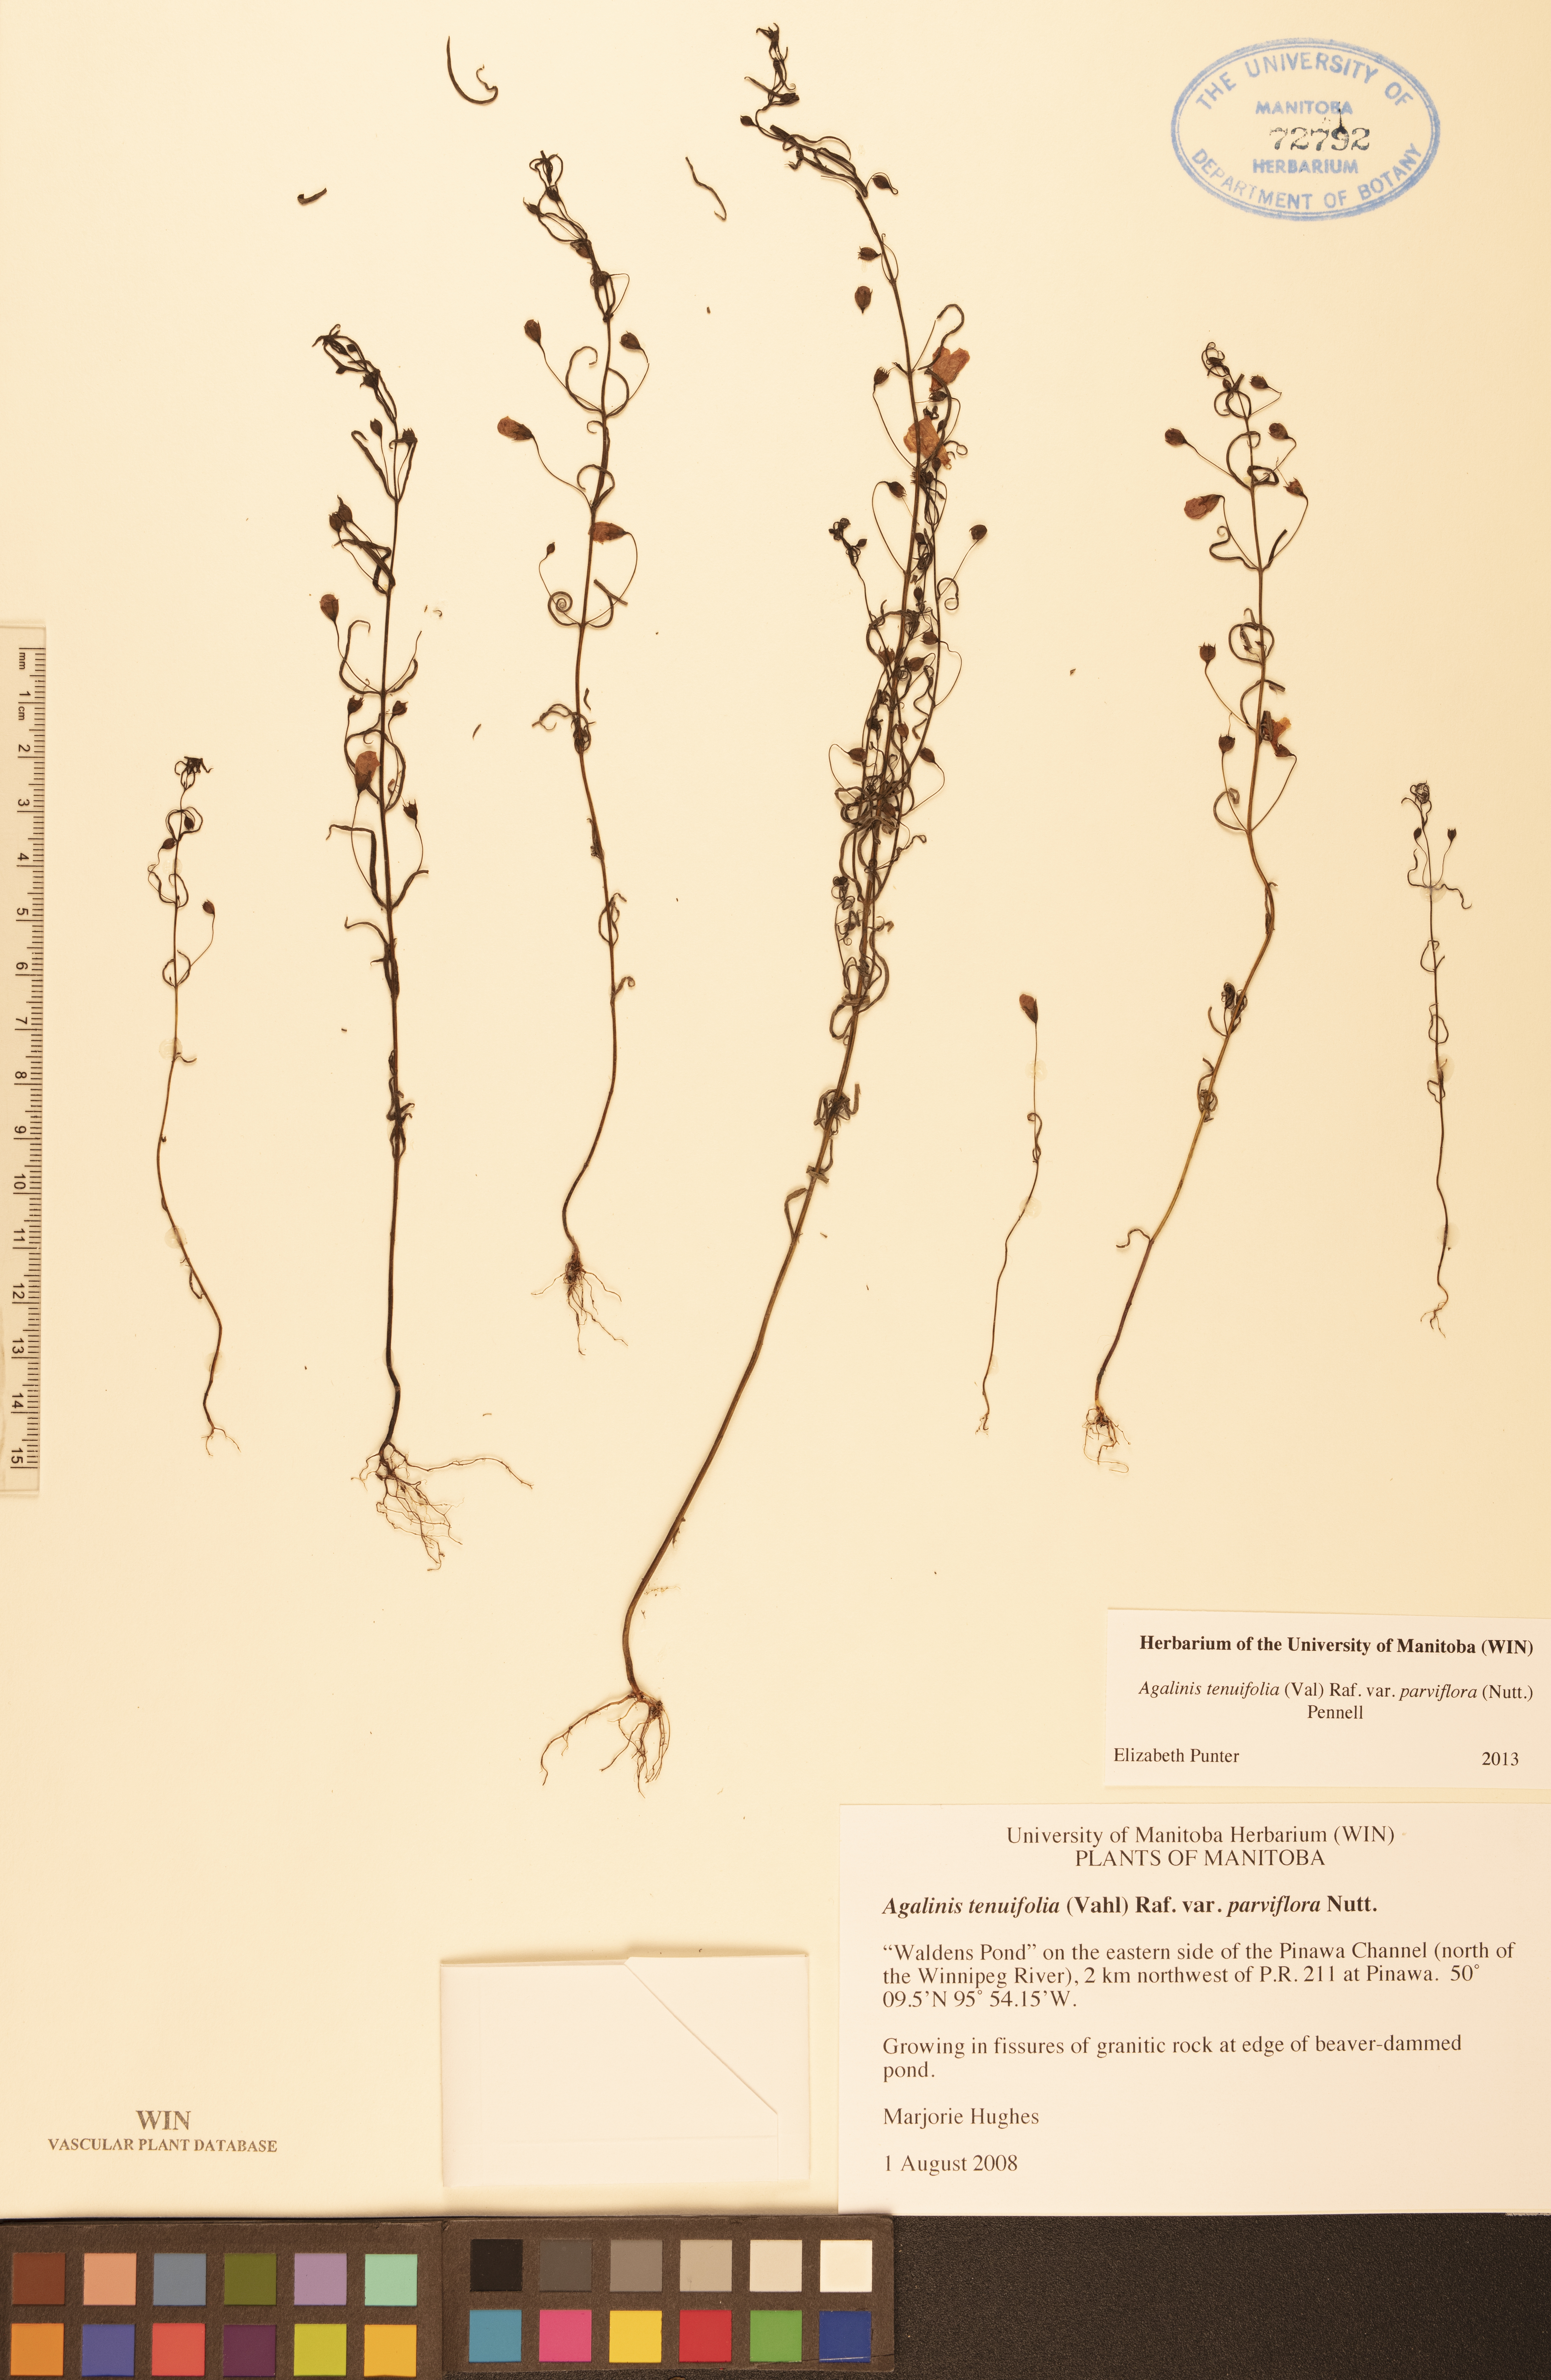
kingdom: Plantae
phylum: Tracheophyta
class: Magnoliopsida
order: Lamiales
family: Orobanchaceae
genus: Agalinis
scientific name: Agalinis tenuifolia
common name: Slender agalinis
